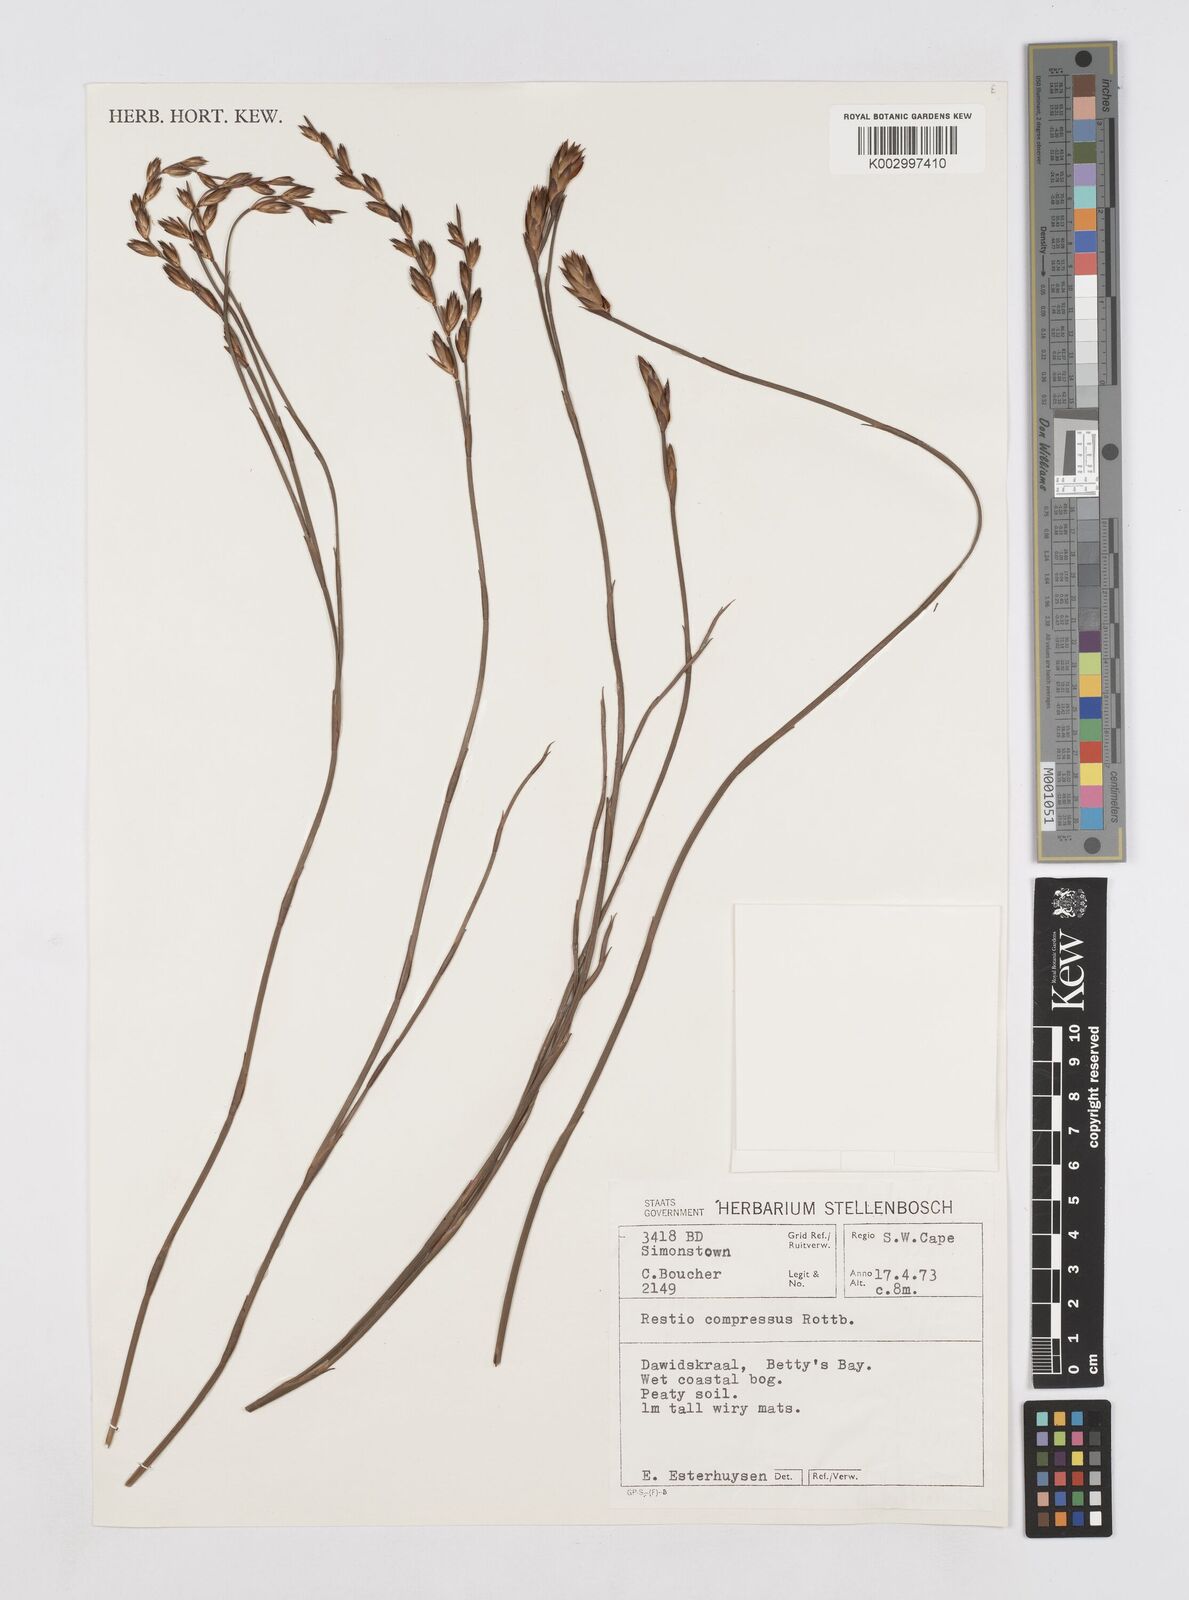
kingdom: Plantae
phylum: Tracheophyta
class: Liliopsida
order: Poales
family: Restionaceae
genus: Platycaulos
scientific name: Platycaulos compressus
